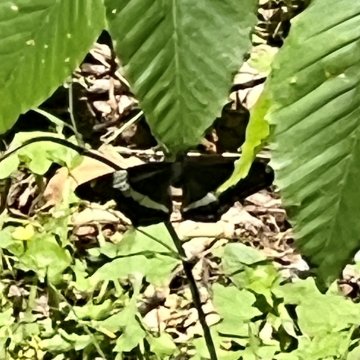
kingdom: Animalia
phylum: Arthropoda
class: Insecta
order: Lepidoptera
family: Nymphalidae
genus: Limenitis
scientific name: Limenitis arthemis
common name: Red-spotted Admiral
